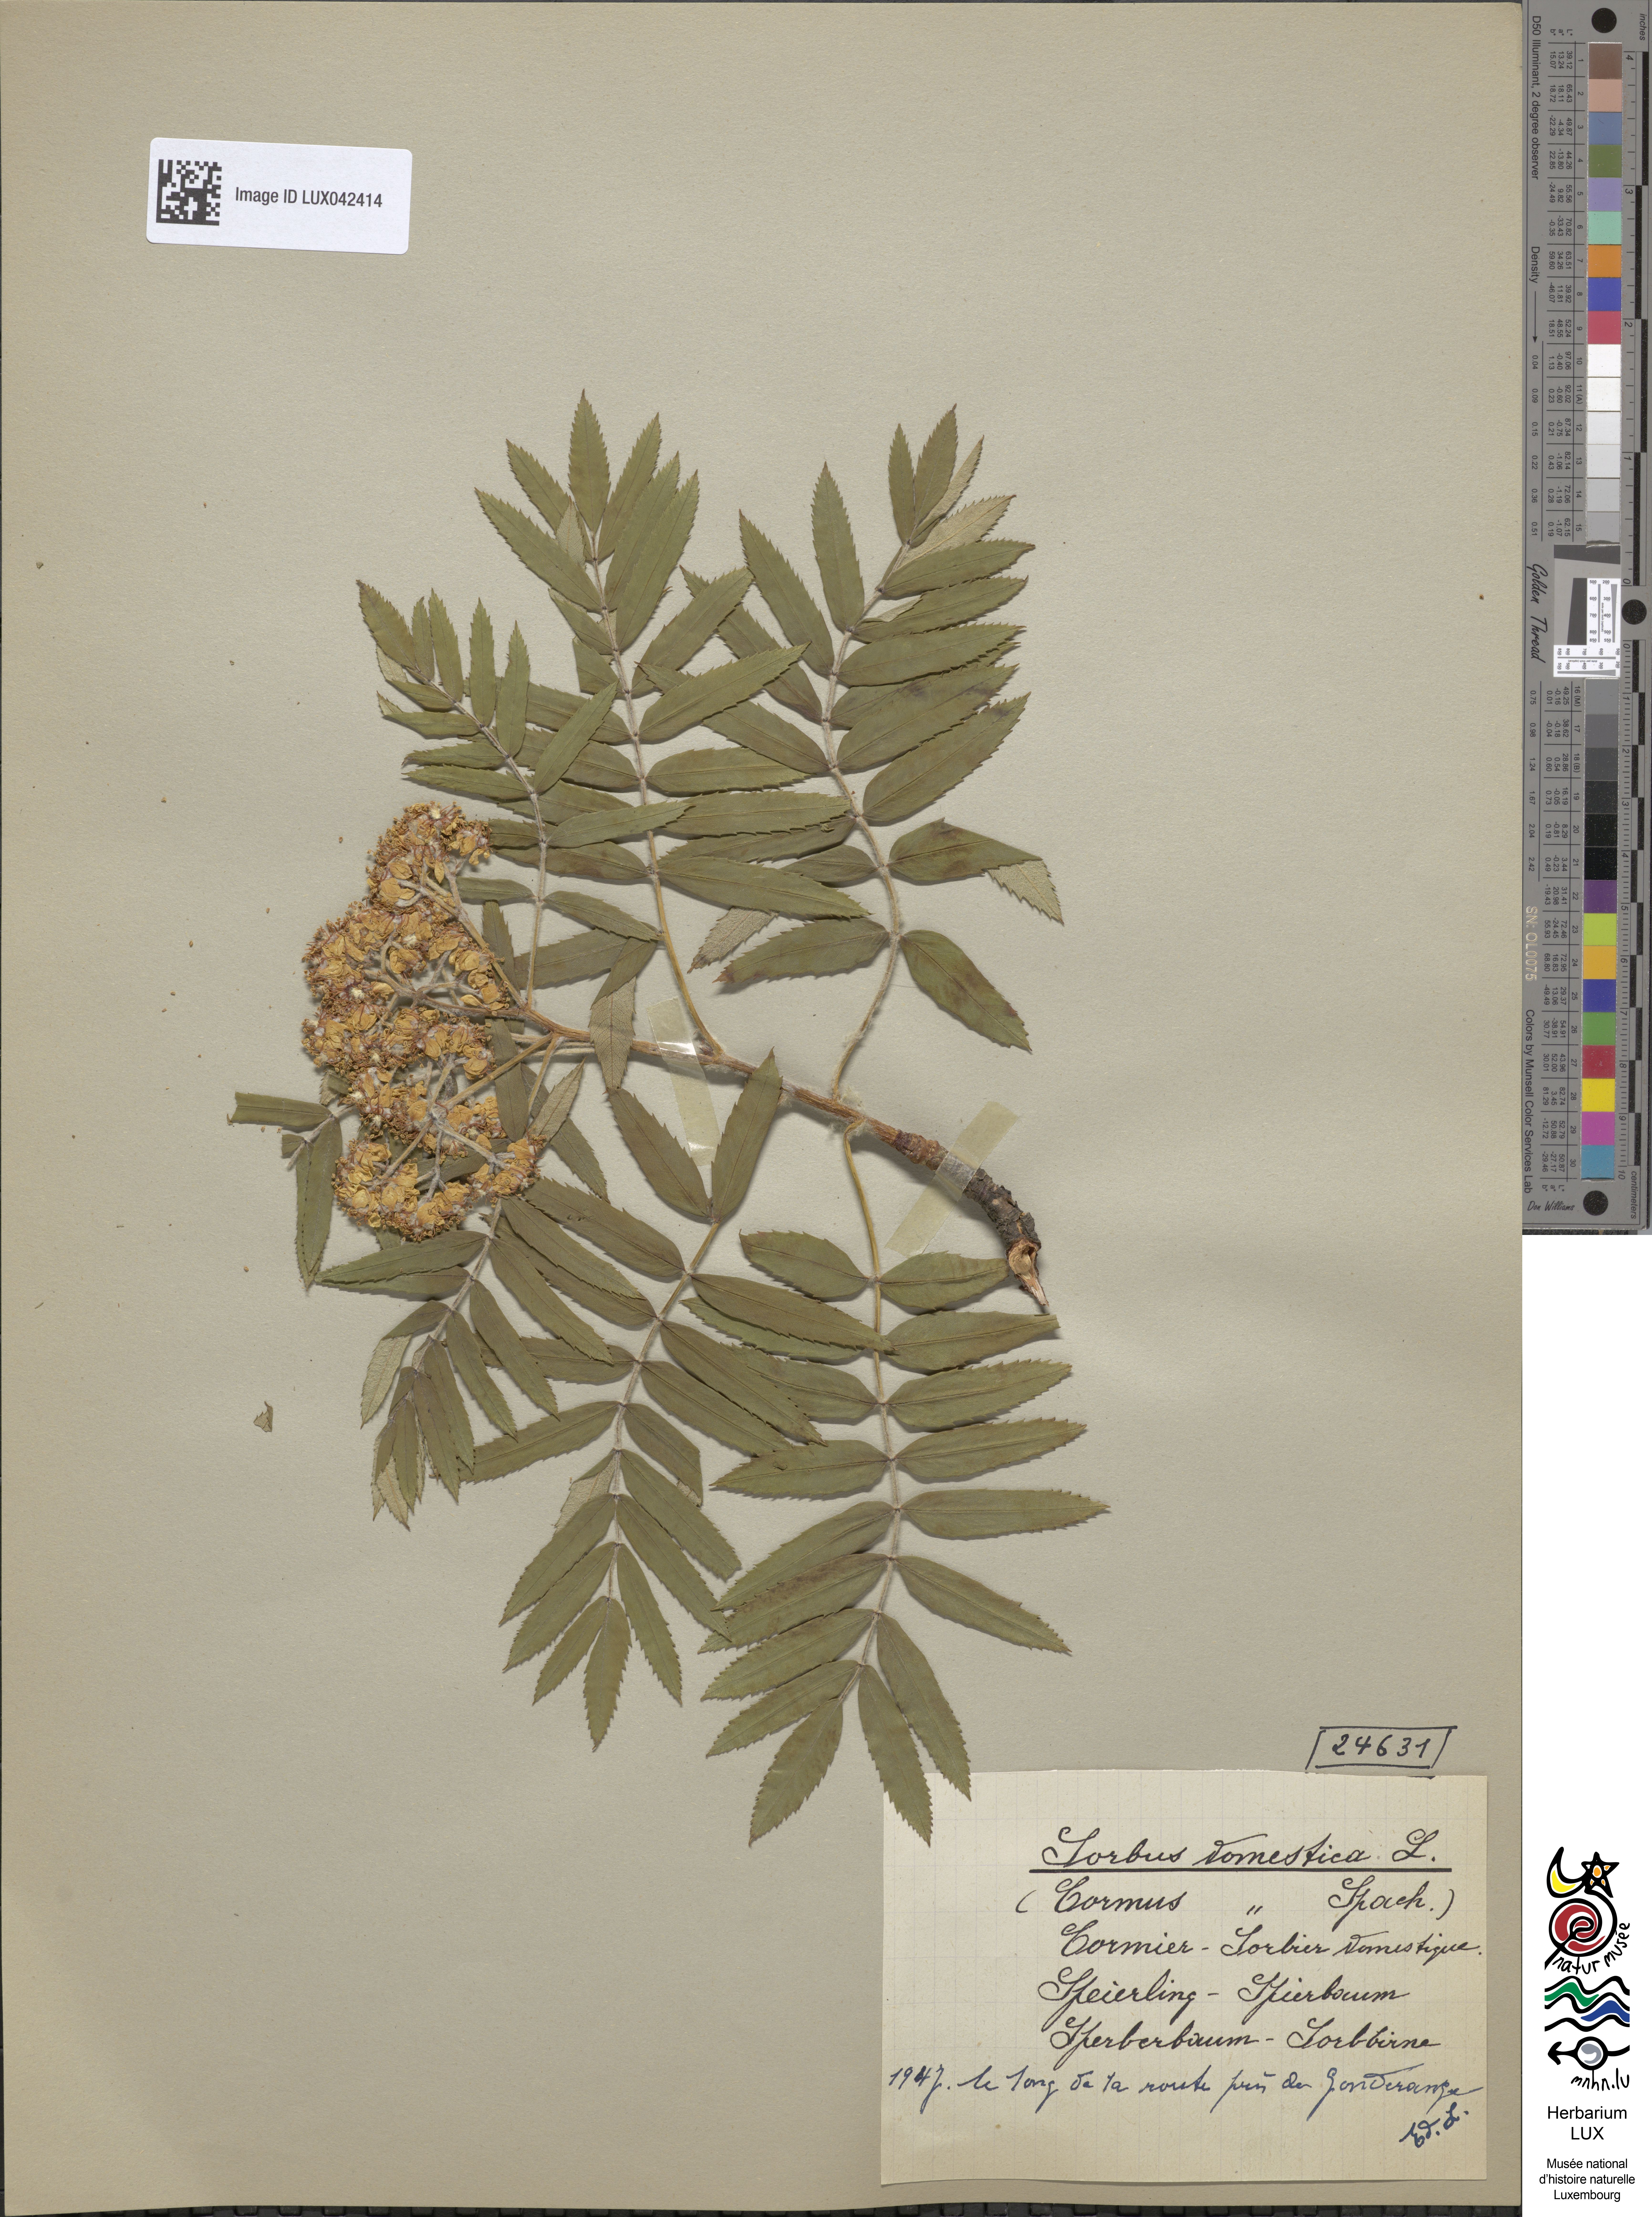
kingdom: Plantae
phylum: Tracheophyta
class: Magnoliopsida
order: Rosales
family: Rosaceae
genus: Cormus
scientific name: Cormus domestica
